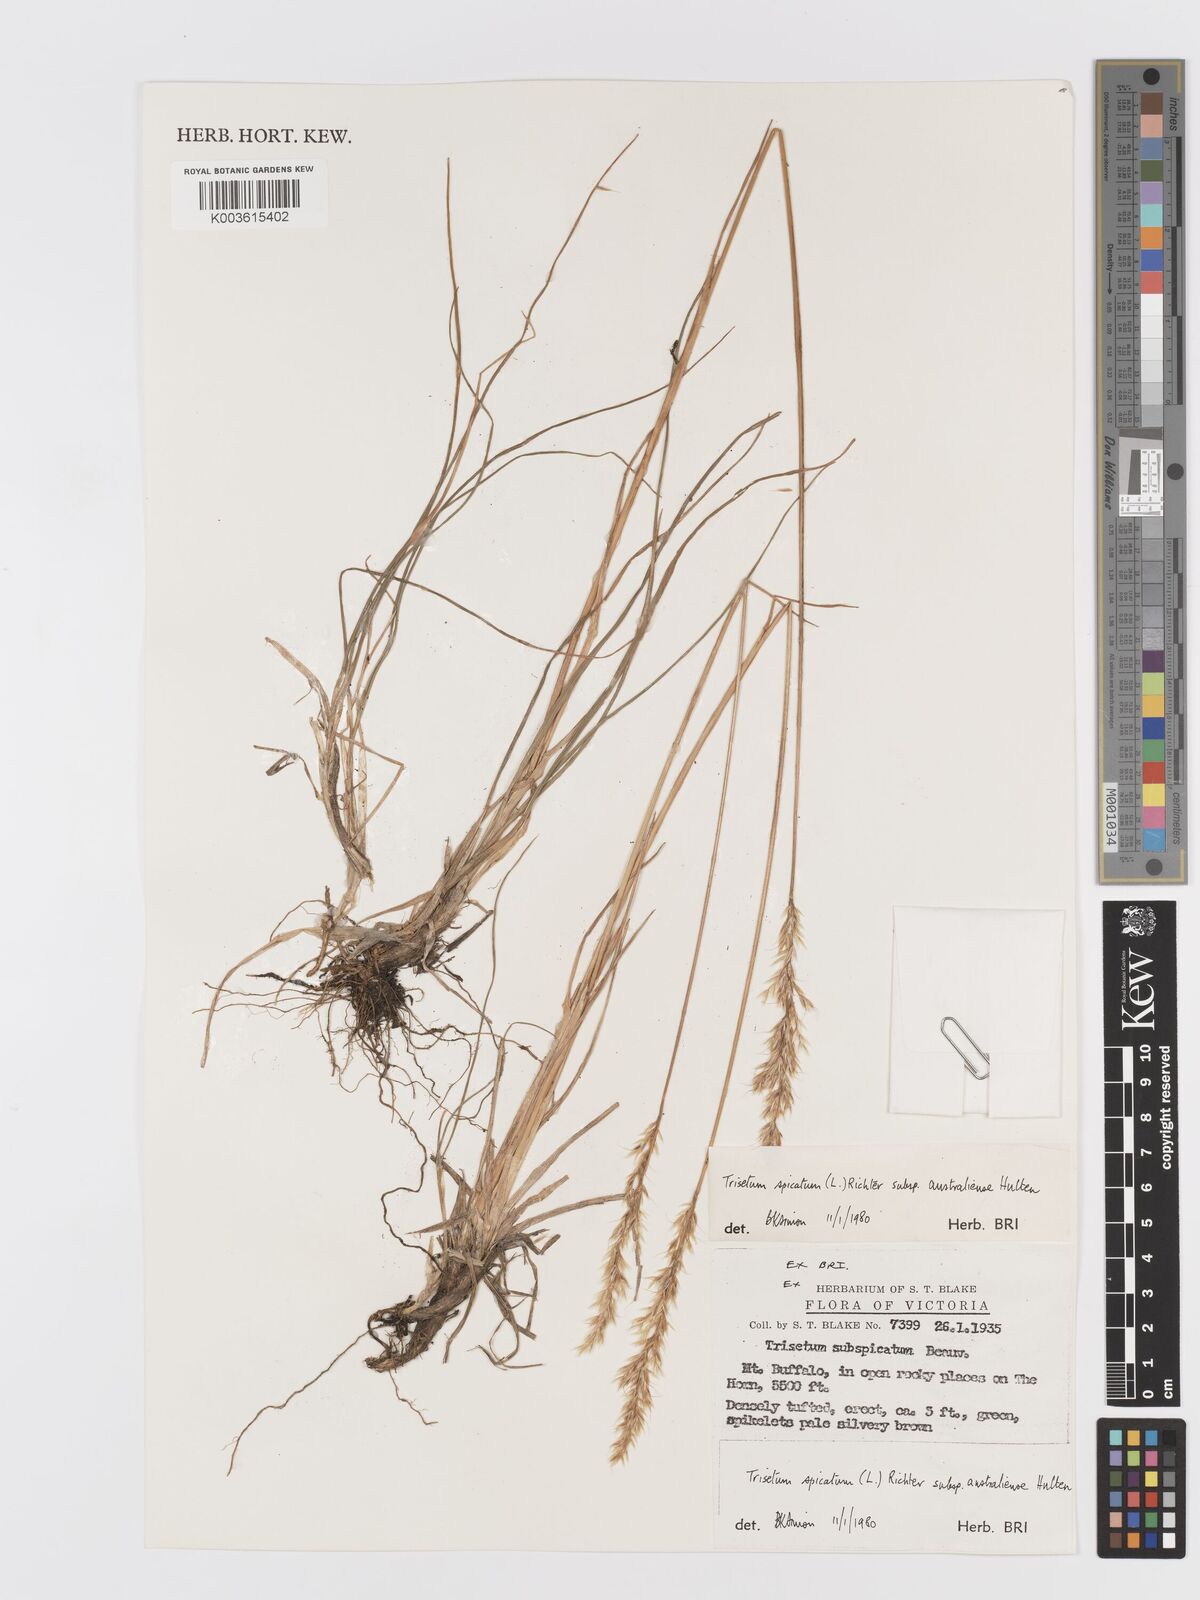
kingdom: Plantae
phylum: Tracheophyta
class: Liliopsida
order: Poales
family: Poaceae
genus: Koeleria
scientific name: Koeleria spicata
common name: Mountain trisetum
